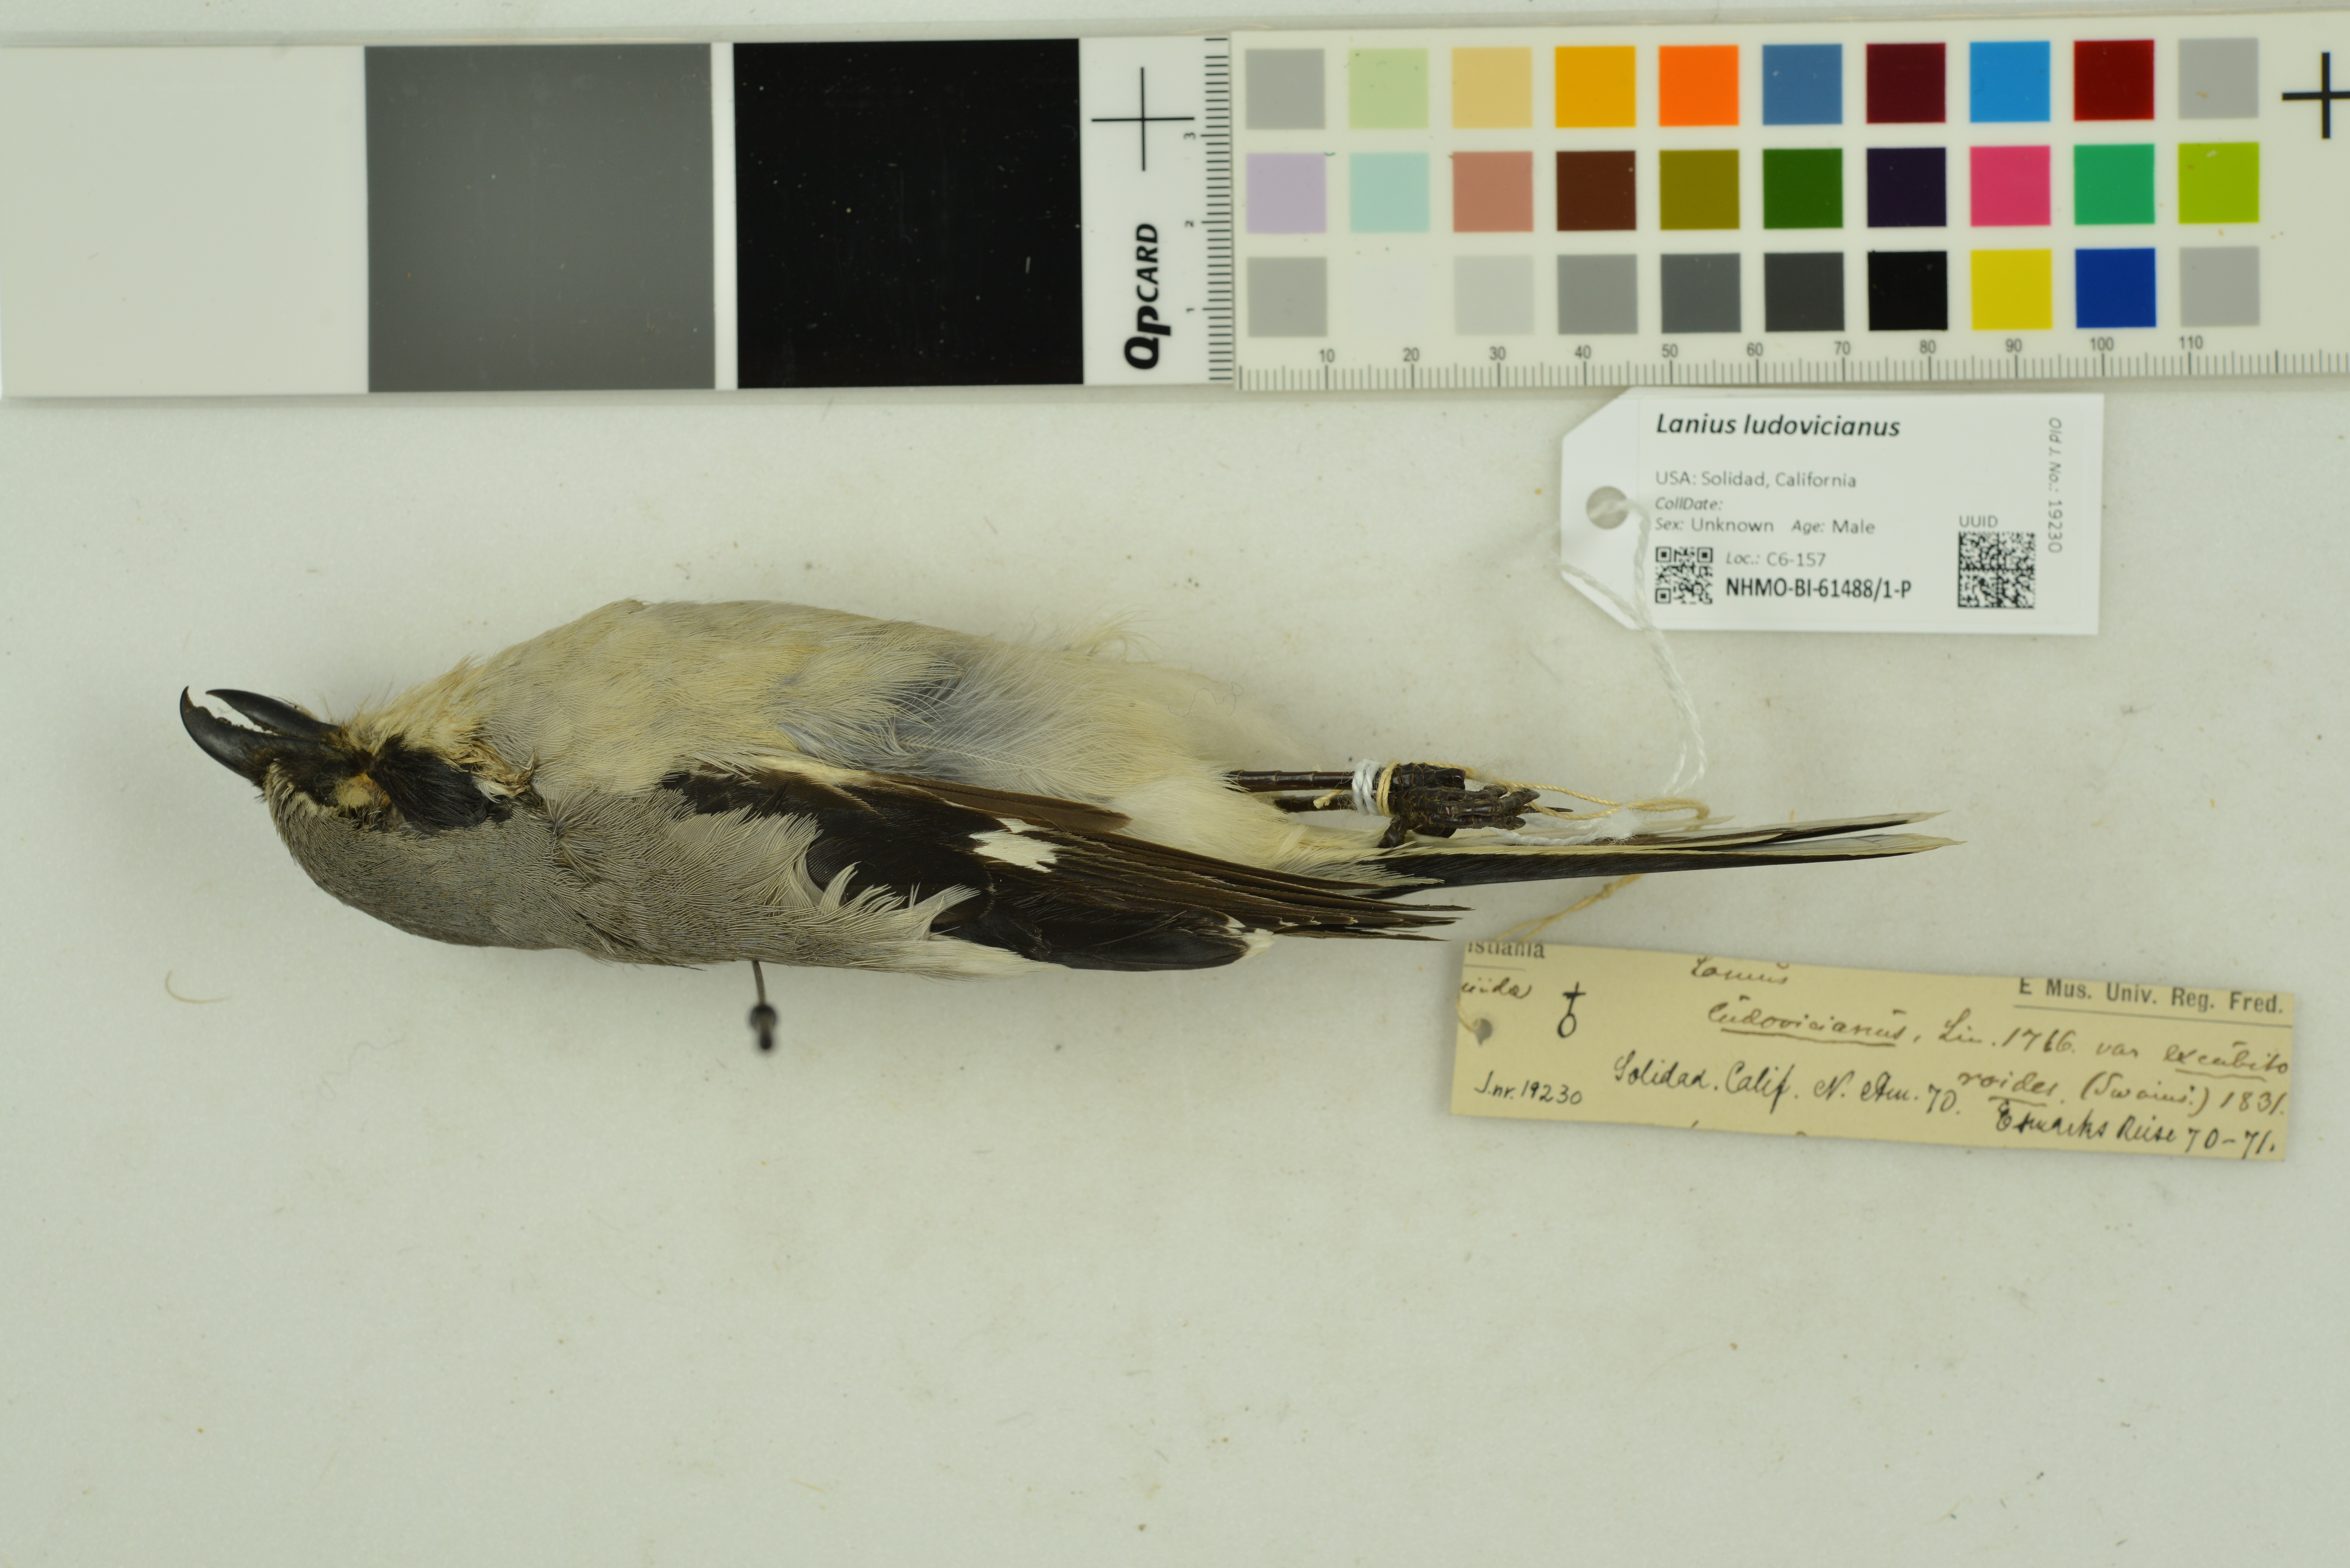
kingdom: Animalia
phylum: Chordata
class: Aves
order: Passeriformes
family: Laniidae
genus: Lanius
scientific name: Lanius ludovicianus
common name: Loggerhead shrike
